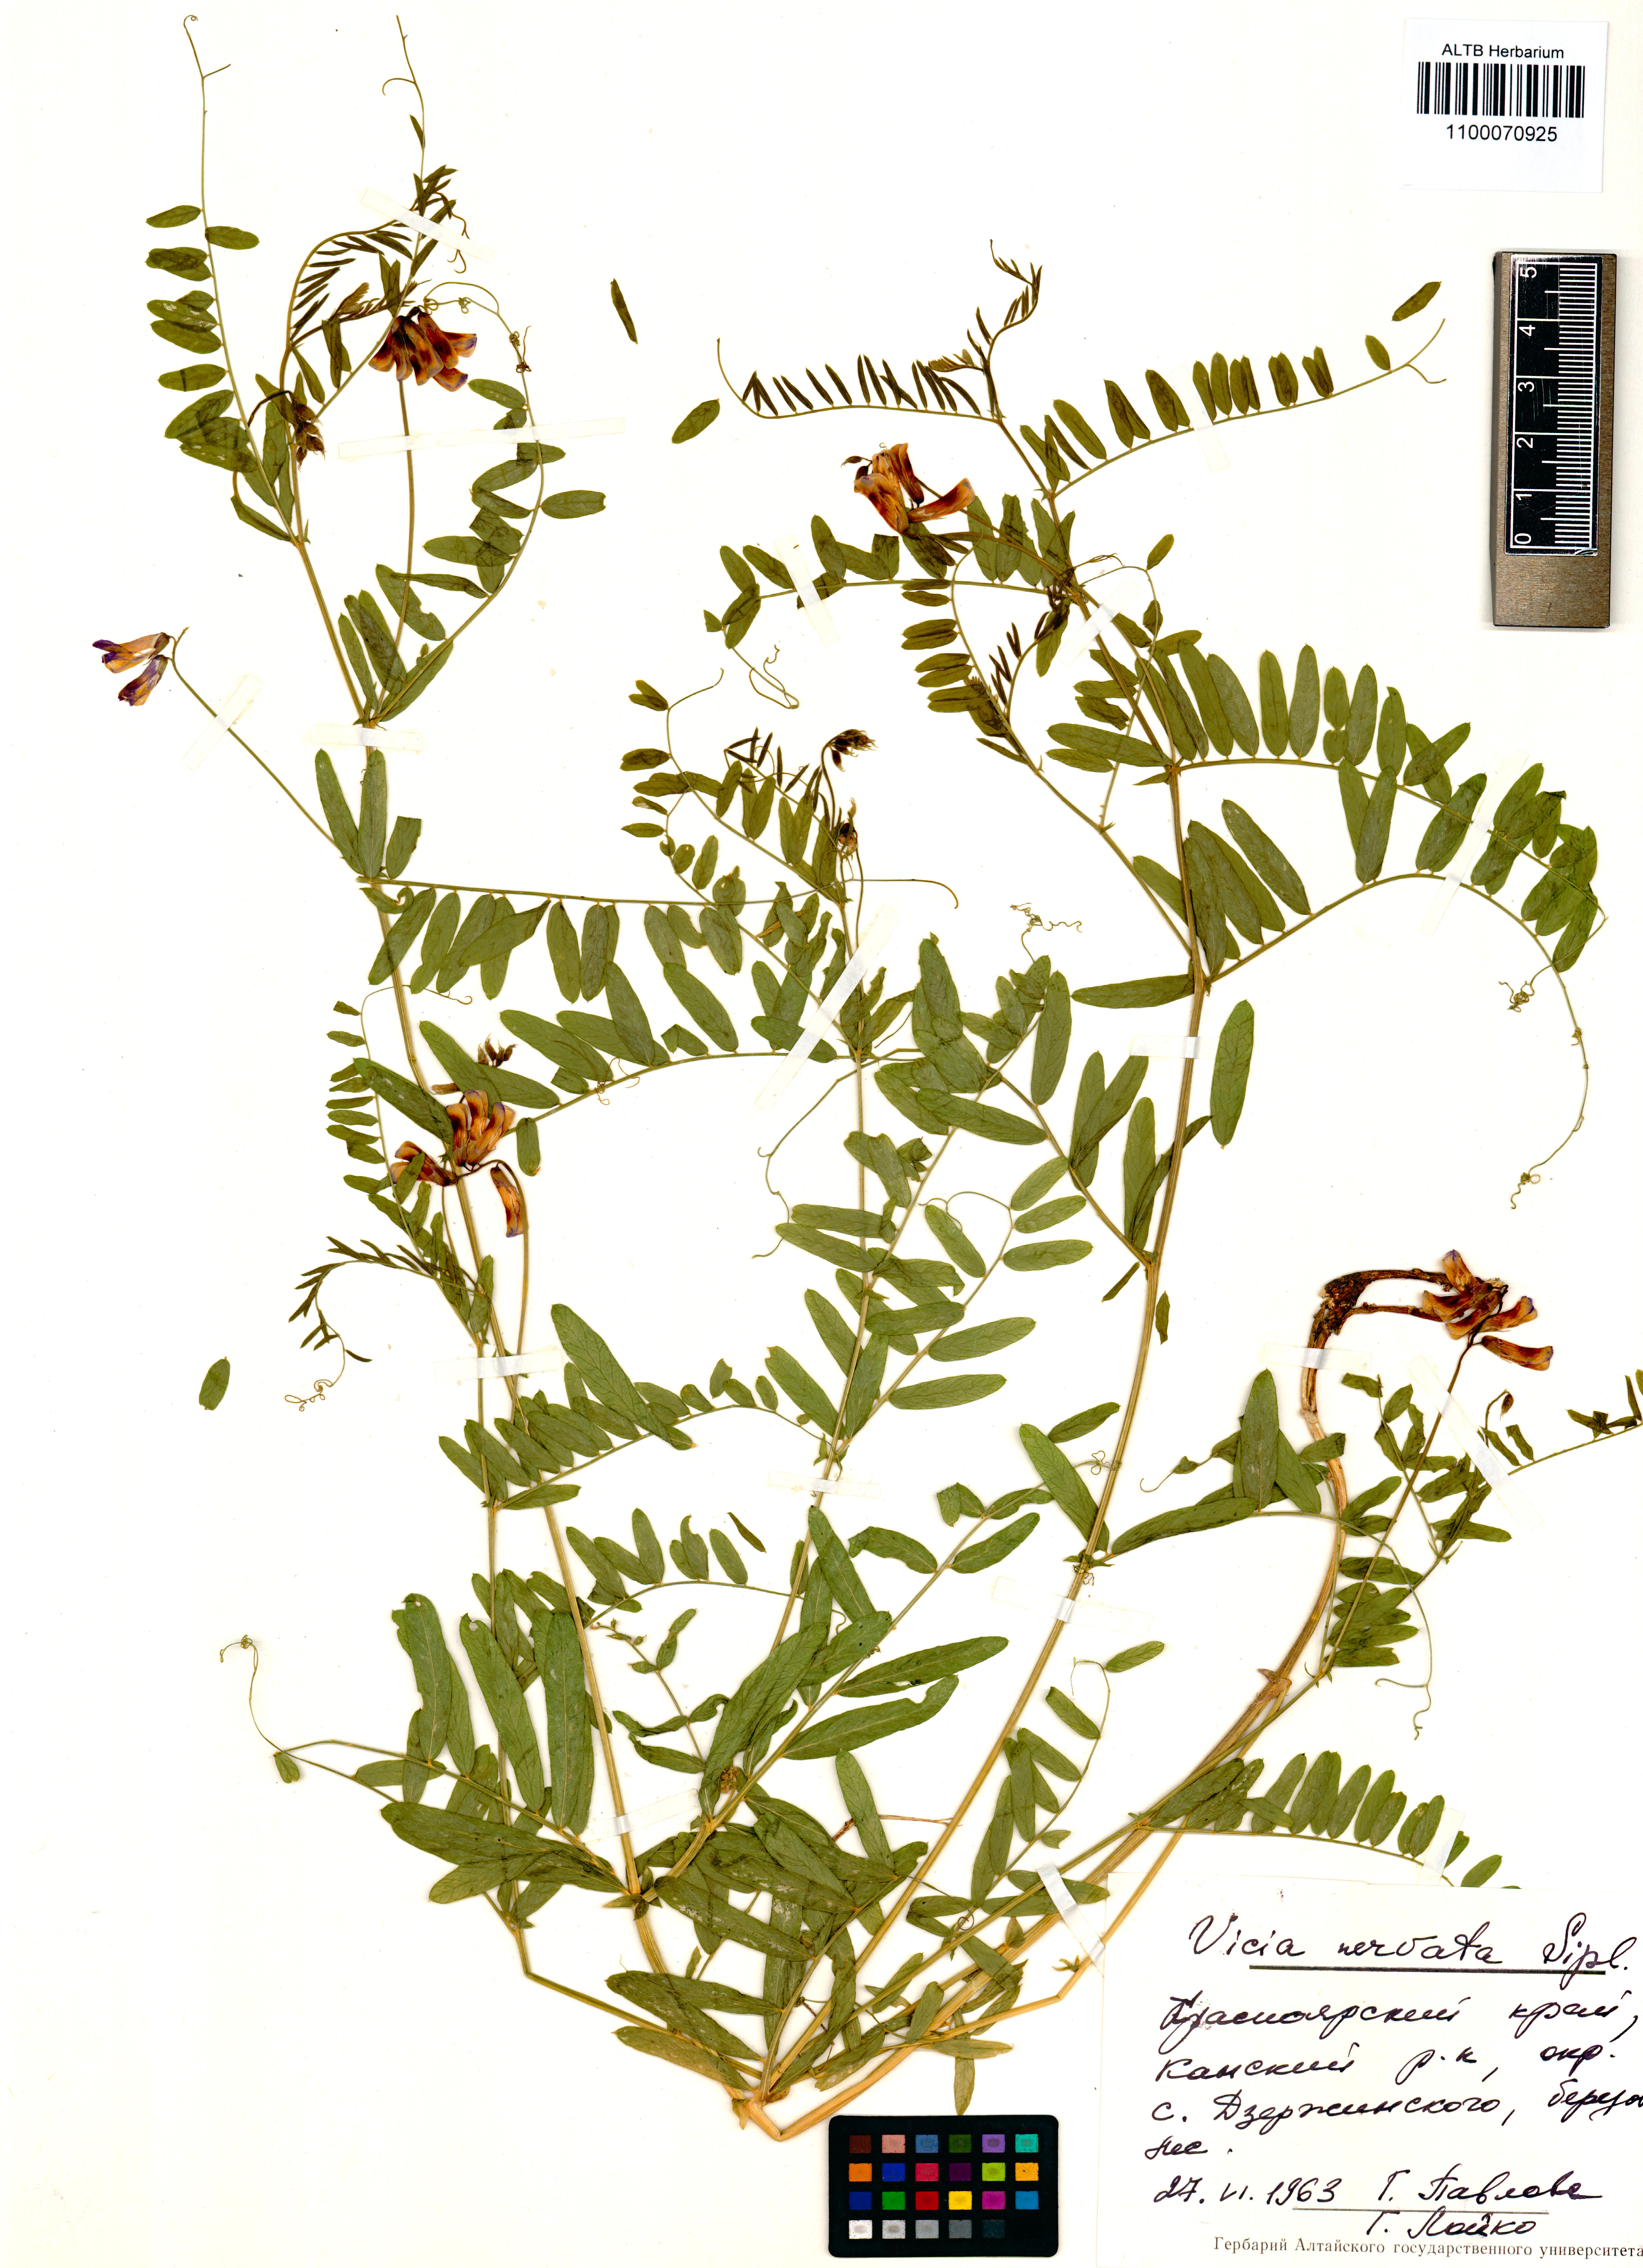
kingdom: Plantae
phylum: Tracheophyta
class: Magnoliopsida
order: Fabales
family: Fabaceae
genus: Vicia
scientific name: Vicia multicaulis
